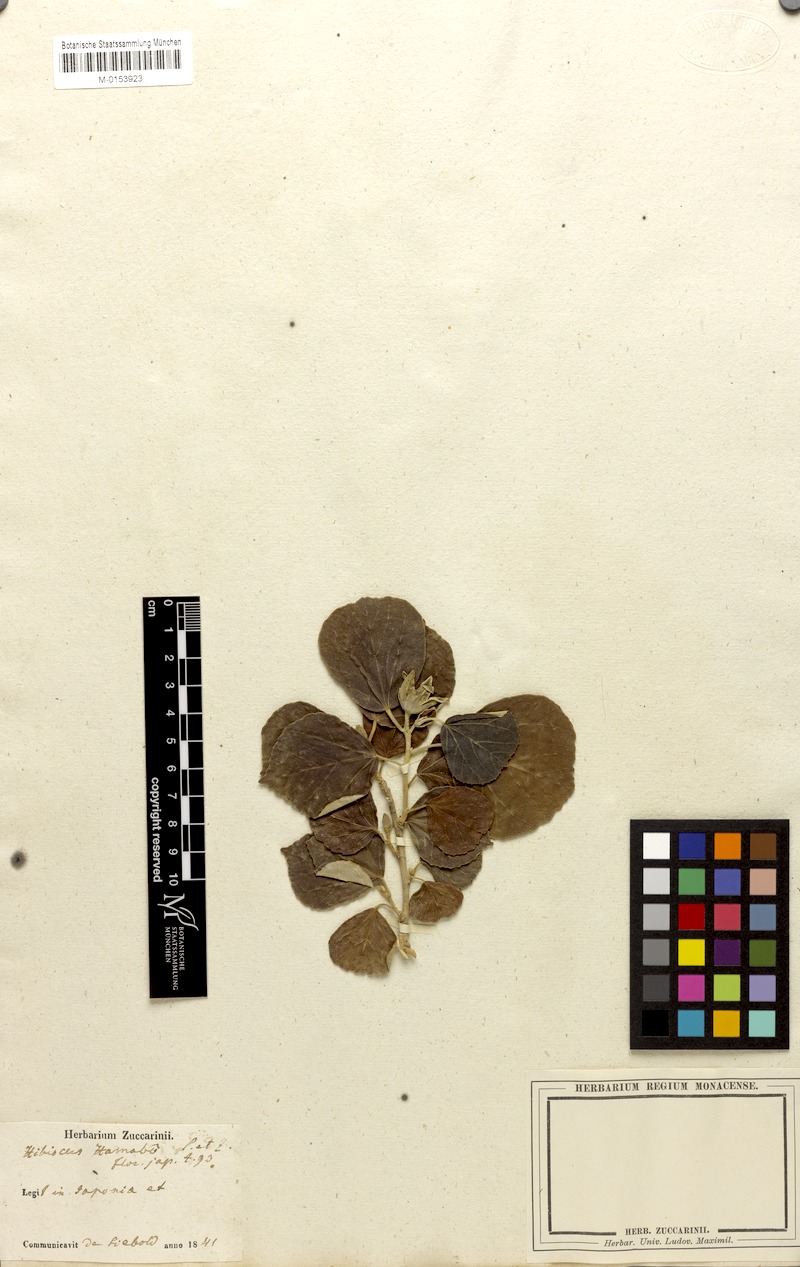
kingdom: Plantae
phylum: Tracheophyta
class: Magnoliopsida
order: Malvales
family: Malvaceae
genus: Talipariti
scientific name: Talipariti hamabo
